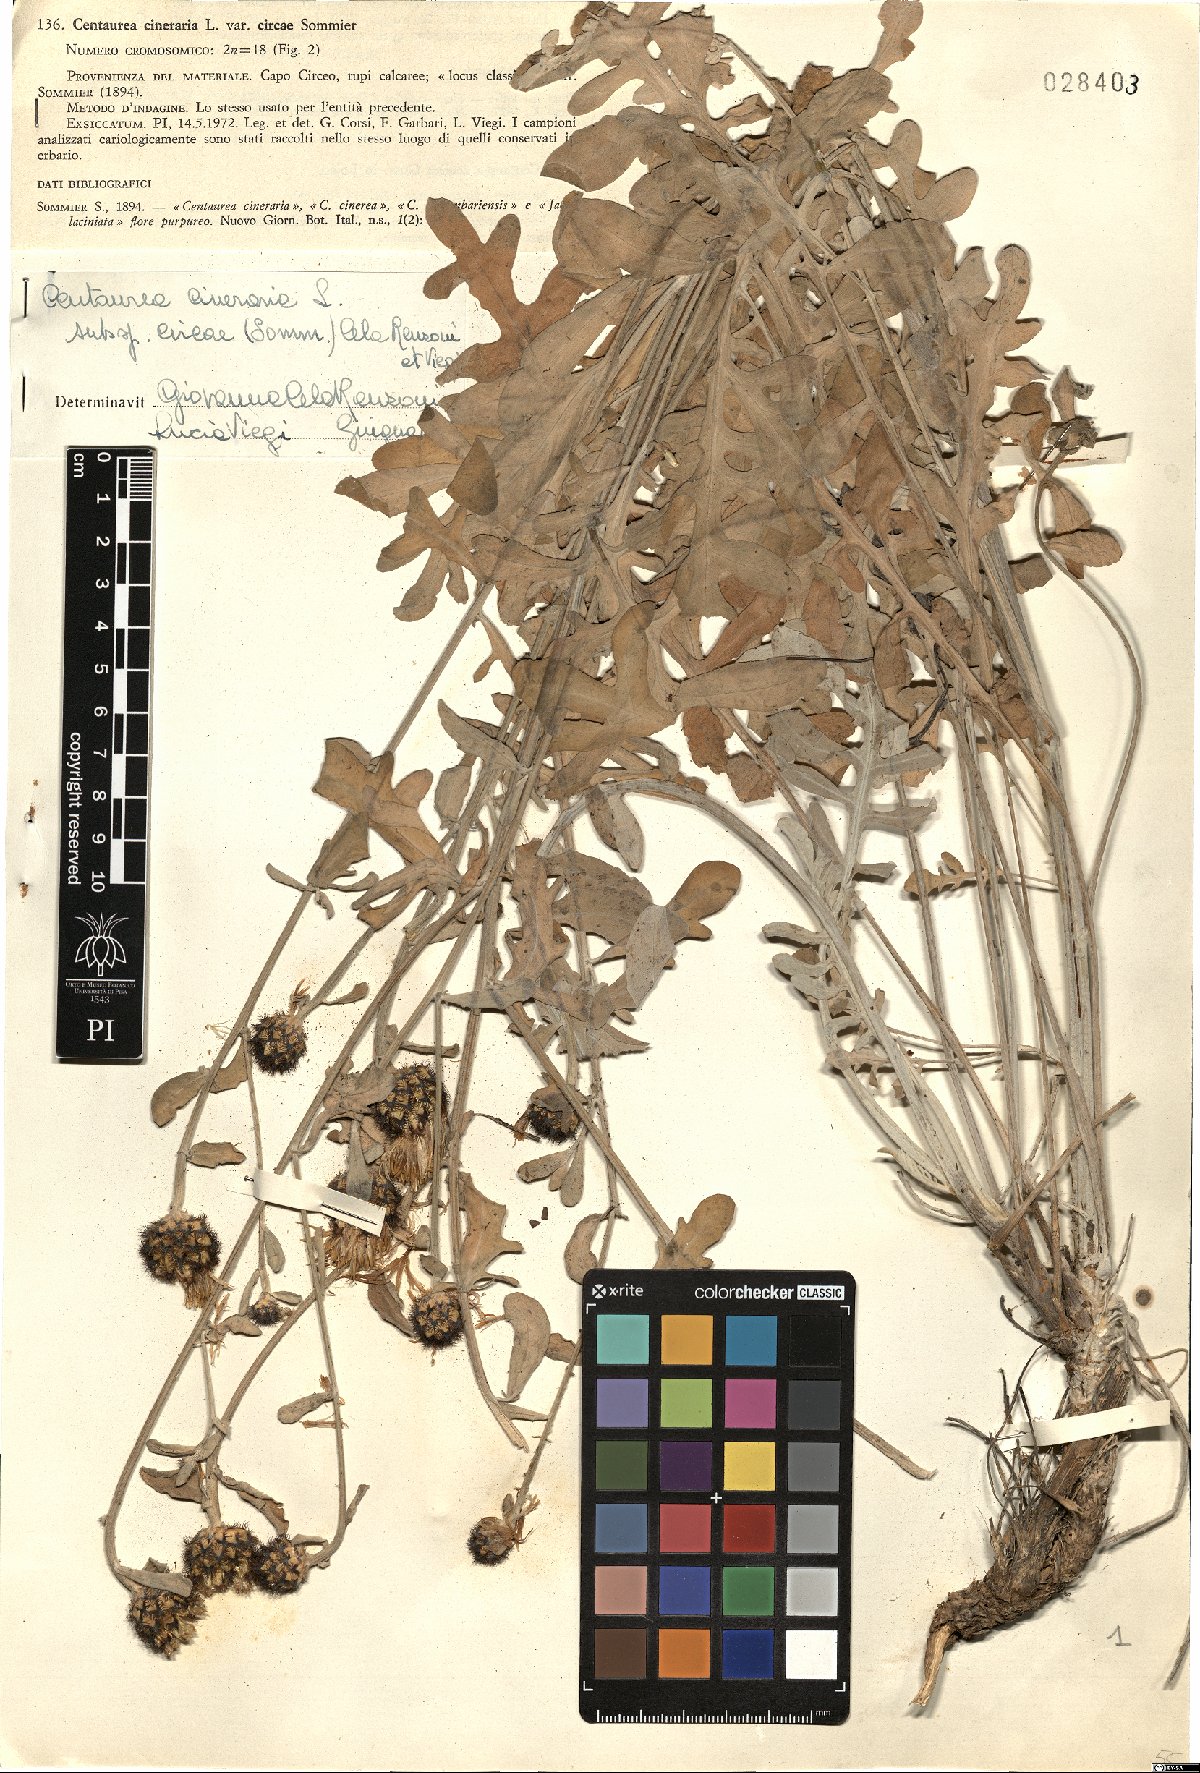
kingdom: Plantae
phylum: Tracheophyta
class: Magnoliopsida
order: Asterales
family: Asteraceae
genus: Centaurea
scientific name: Centaurea cineraria
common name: Dusty miller
